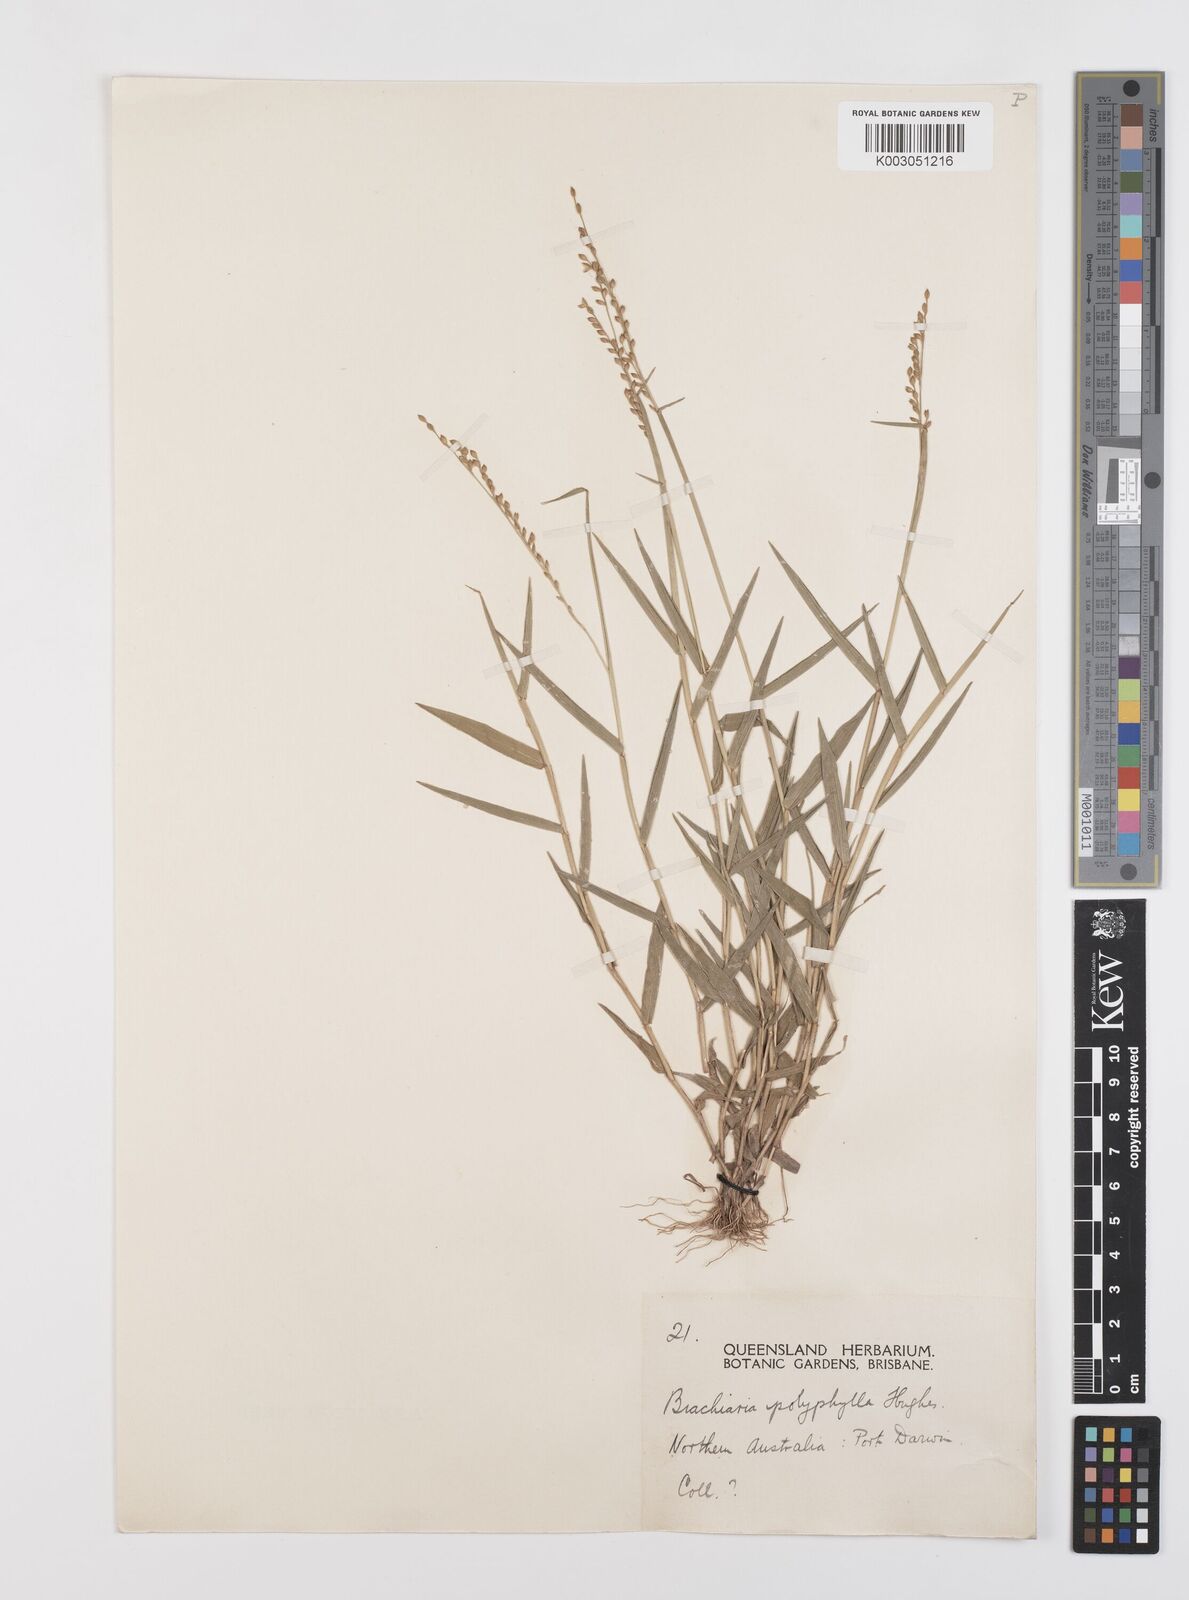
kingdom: Plantae
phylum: Tracheophyta
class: Liliopsida
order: Poales
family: Poaceae
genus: Urochloa
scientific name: Urochloa polyphylla
